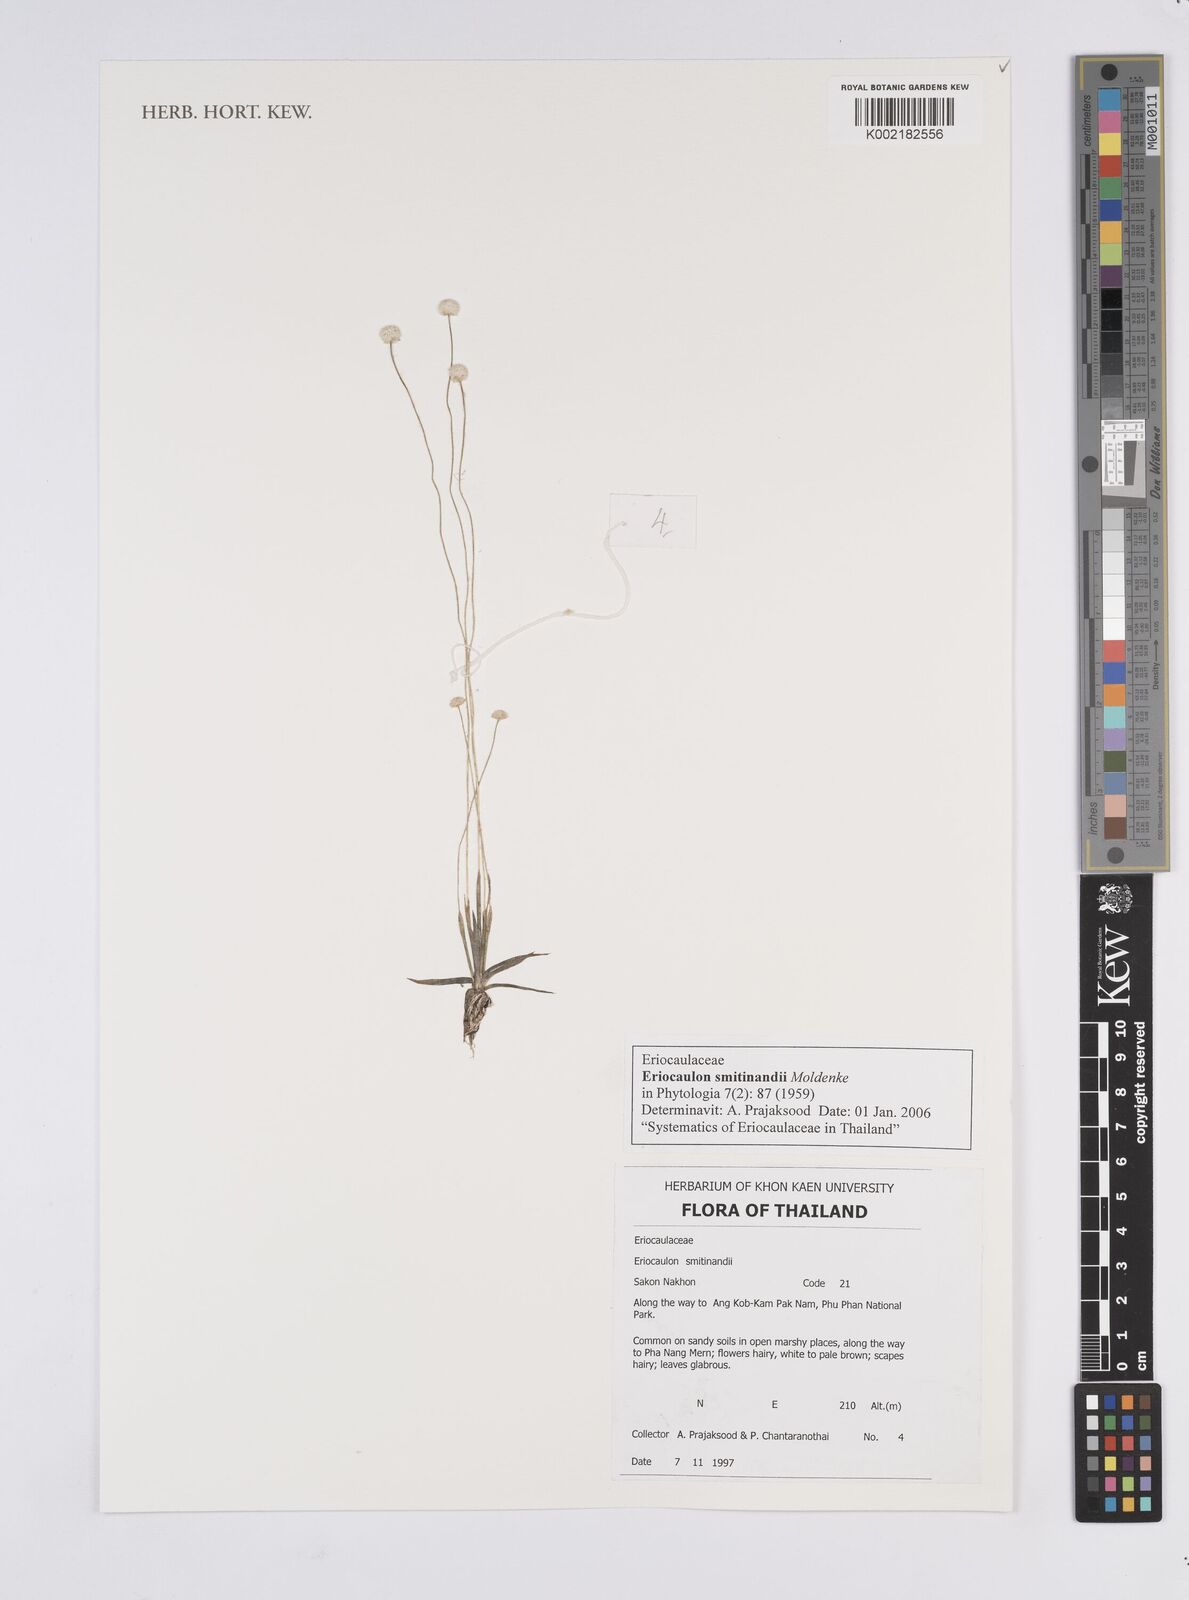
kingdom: Plantae
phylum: Tracheophyta
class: Liliopsida
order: Poales
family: Eriocaulaceae
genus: Eriocaulon
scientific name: Eriocaulon smitinandii
